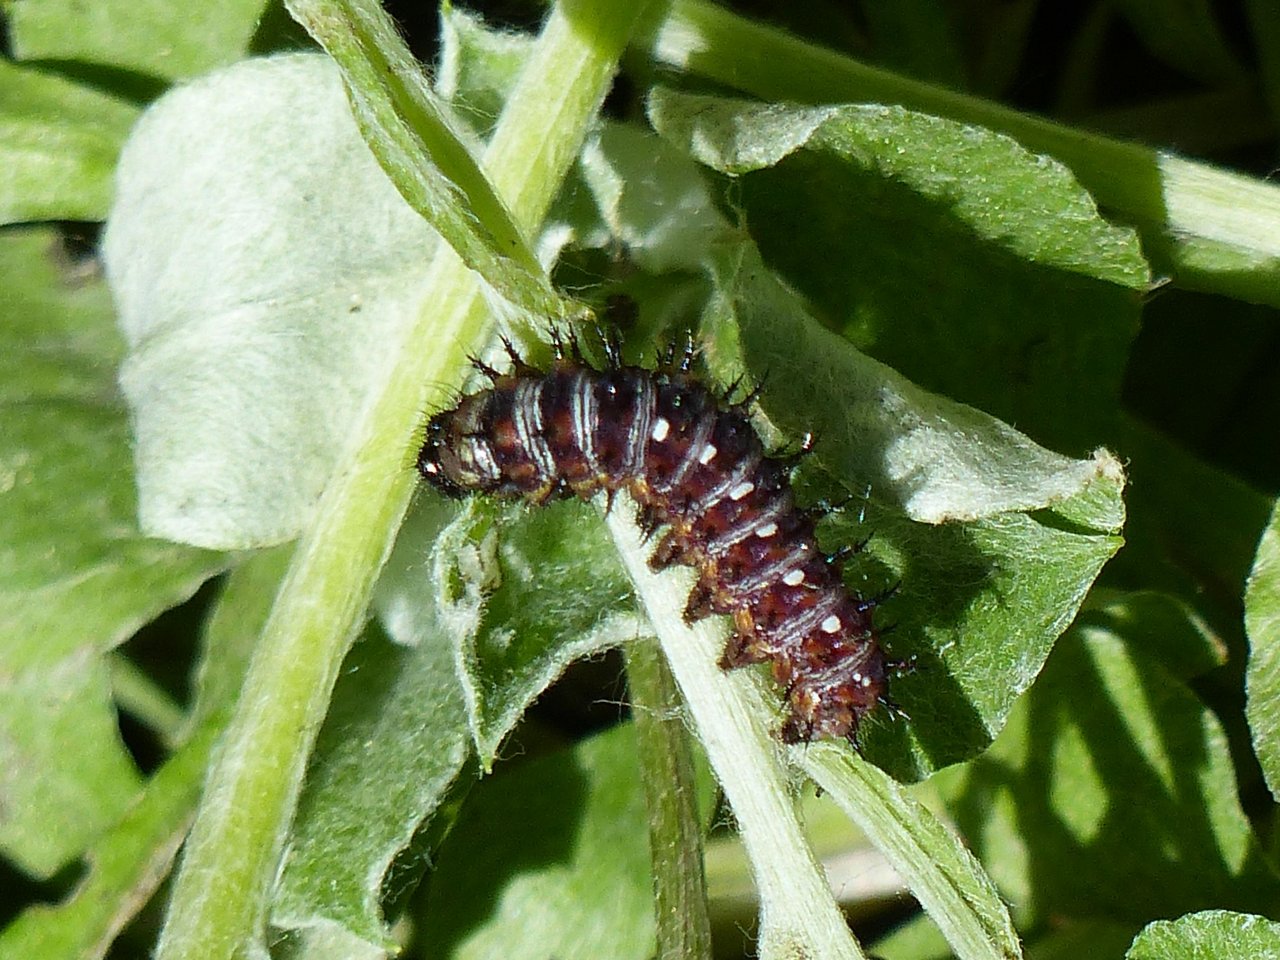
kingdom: Animalia
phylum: Arthropoda
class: Insecta
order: Lepidoptera
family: Nymphalidae
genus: Vanessa
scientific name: Vanessa virginiensis
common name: American Lady
